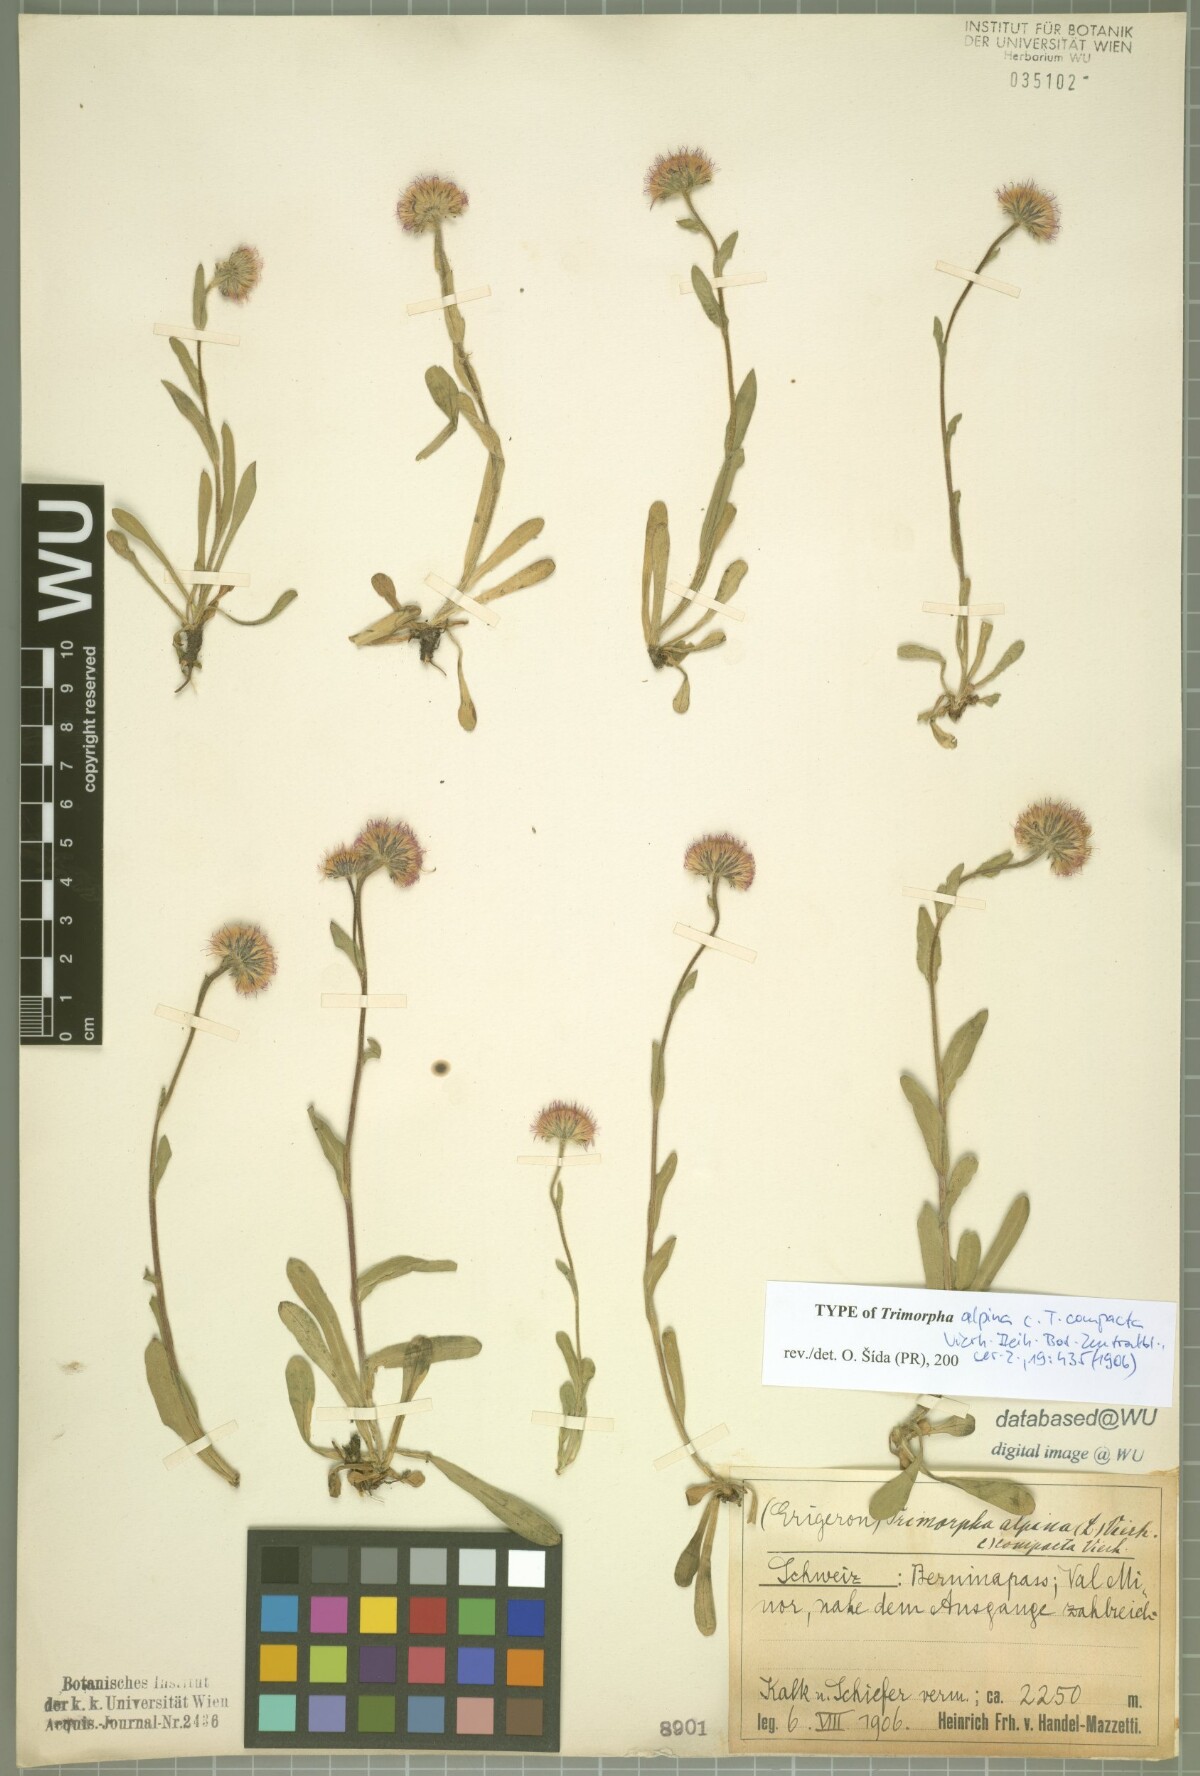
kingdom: Plantae
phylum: Tracheophyta
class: Magnoliopsida
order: Asterales
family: Asteraceae
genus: Erigeron
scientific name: Erigeron alpinus
